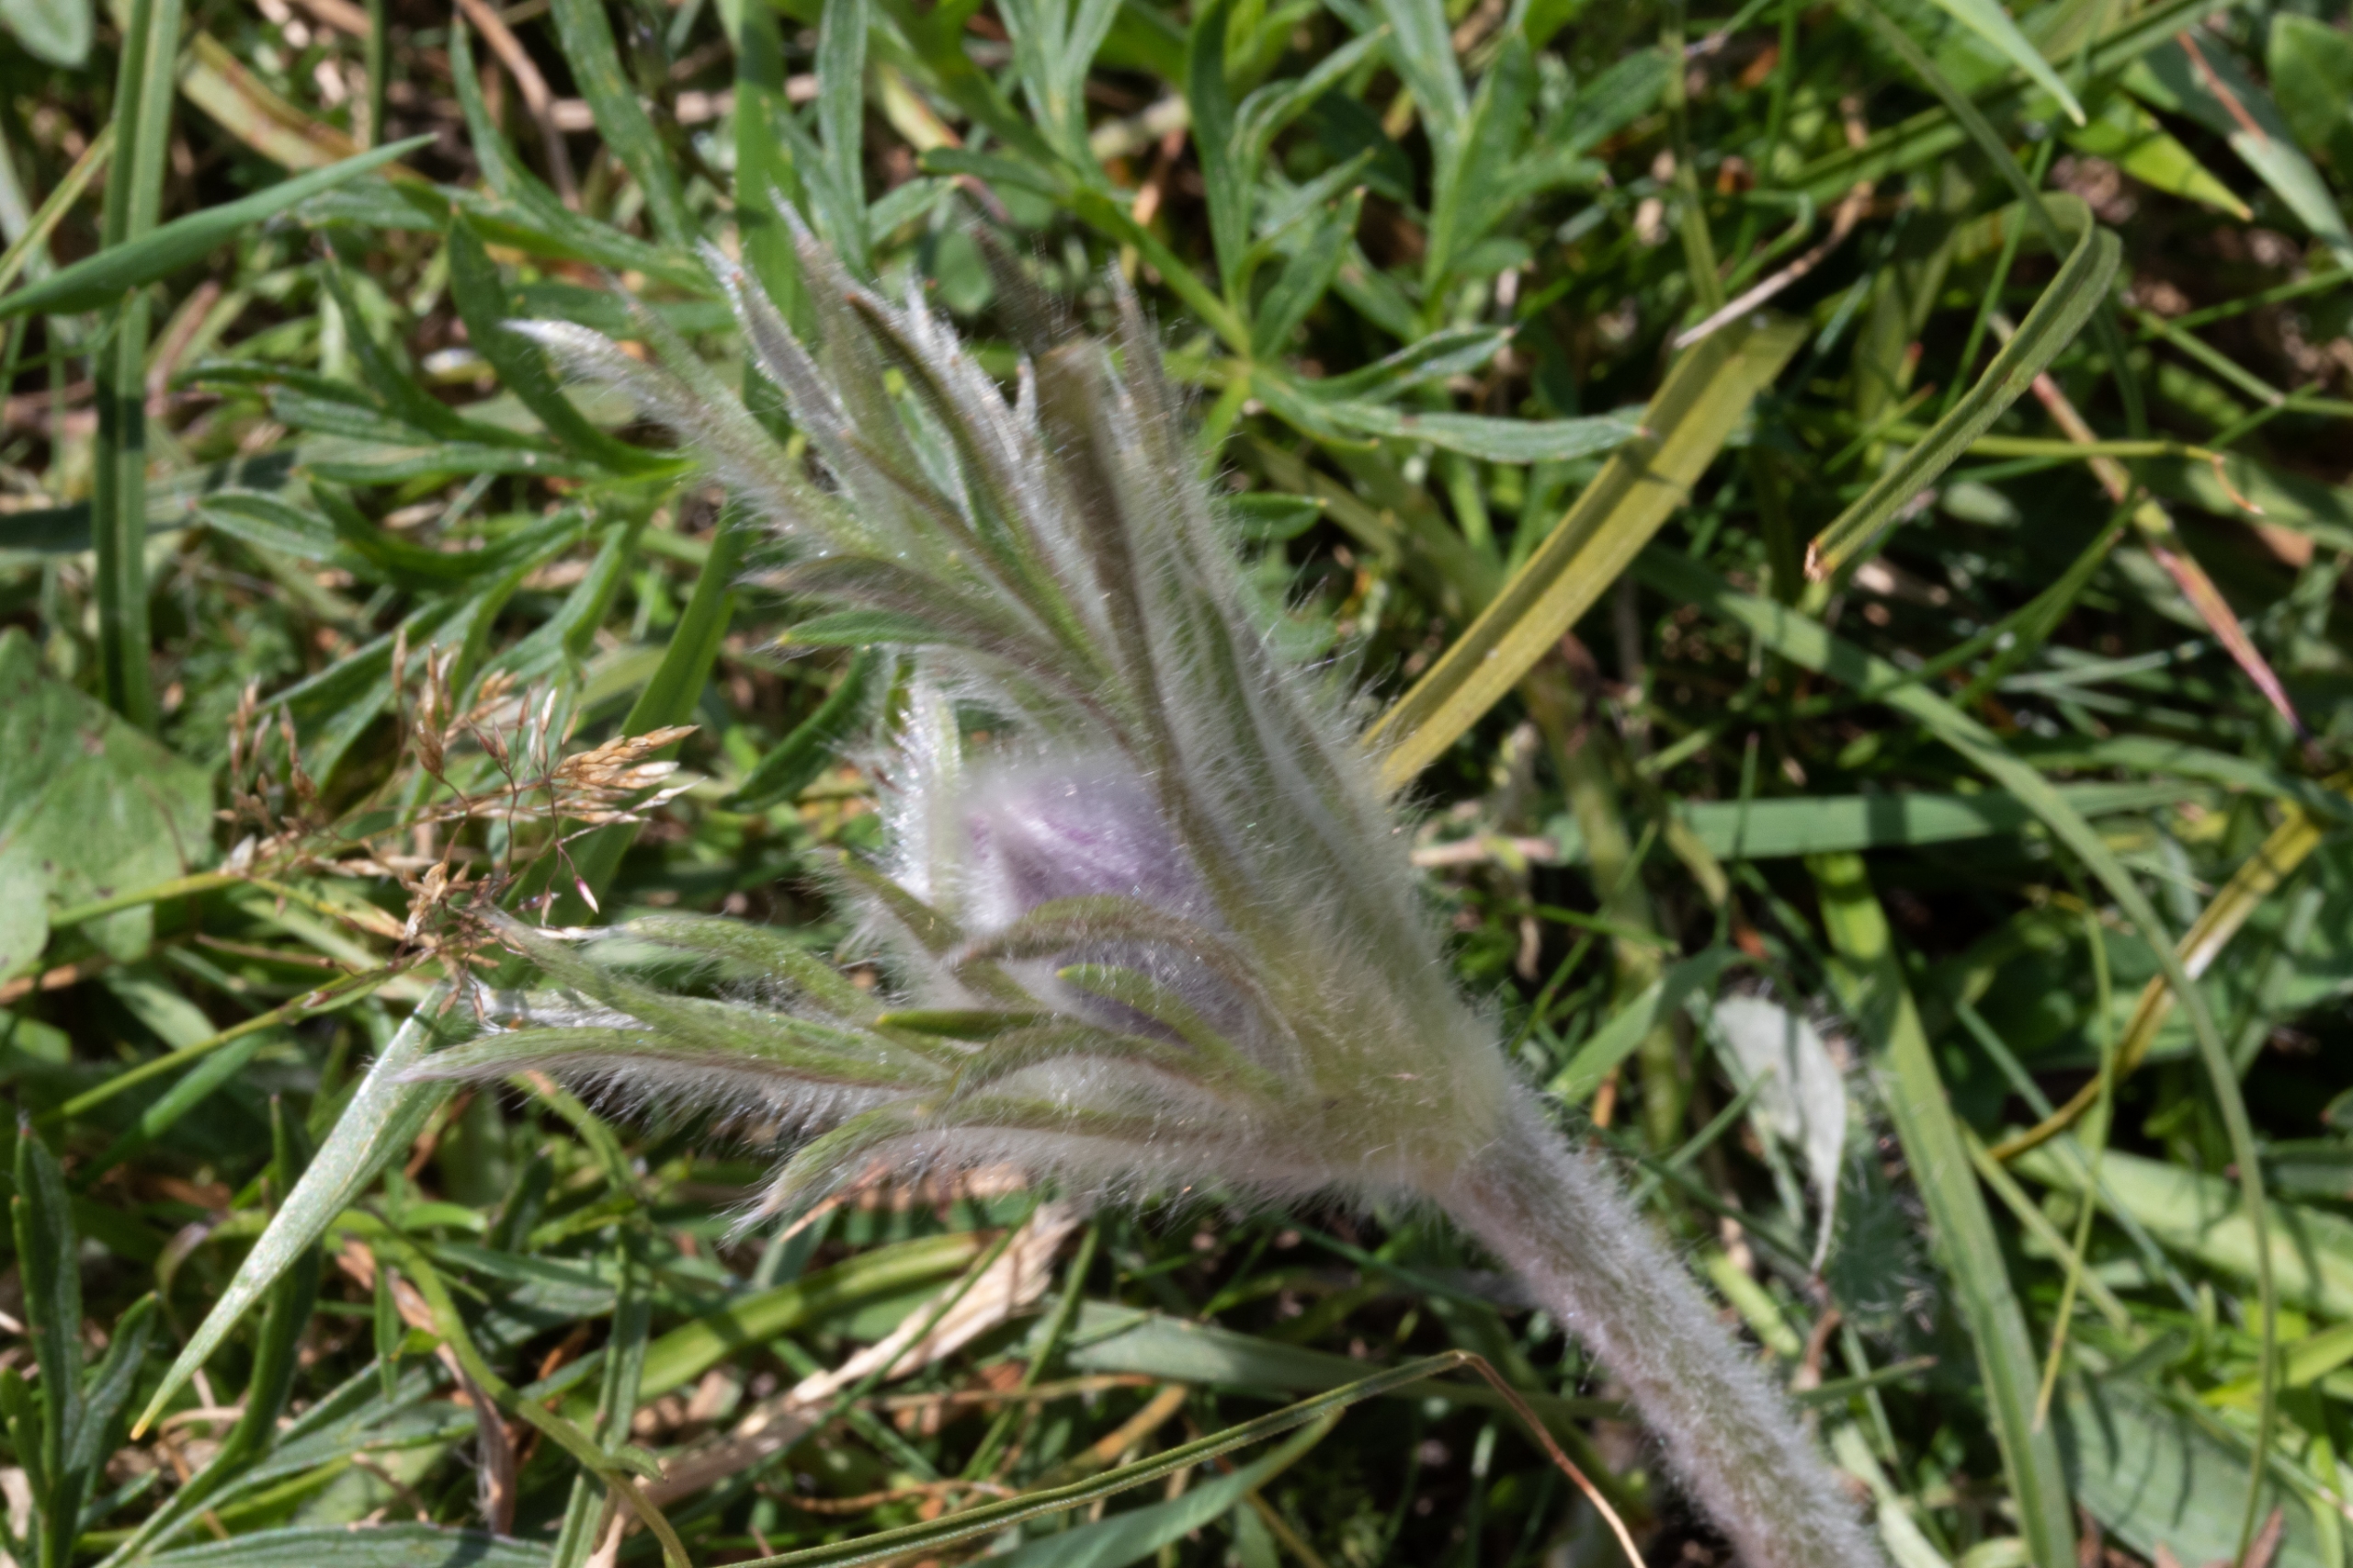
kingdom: Plantae
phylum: Tracheophyta
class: Magnoliopsida
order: Ranunculales
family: Ranunculaceae
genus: Pulsatilla
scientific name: Pulsatilla pratensis
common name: Nikkende kobjælde
